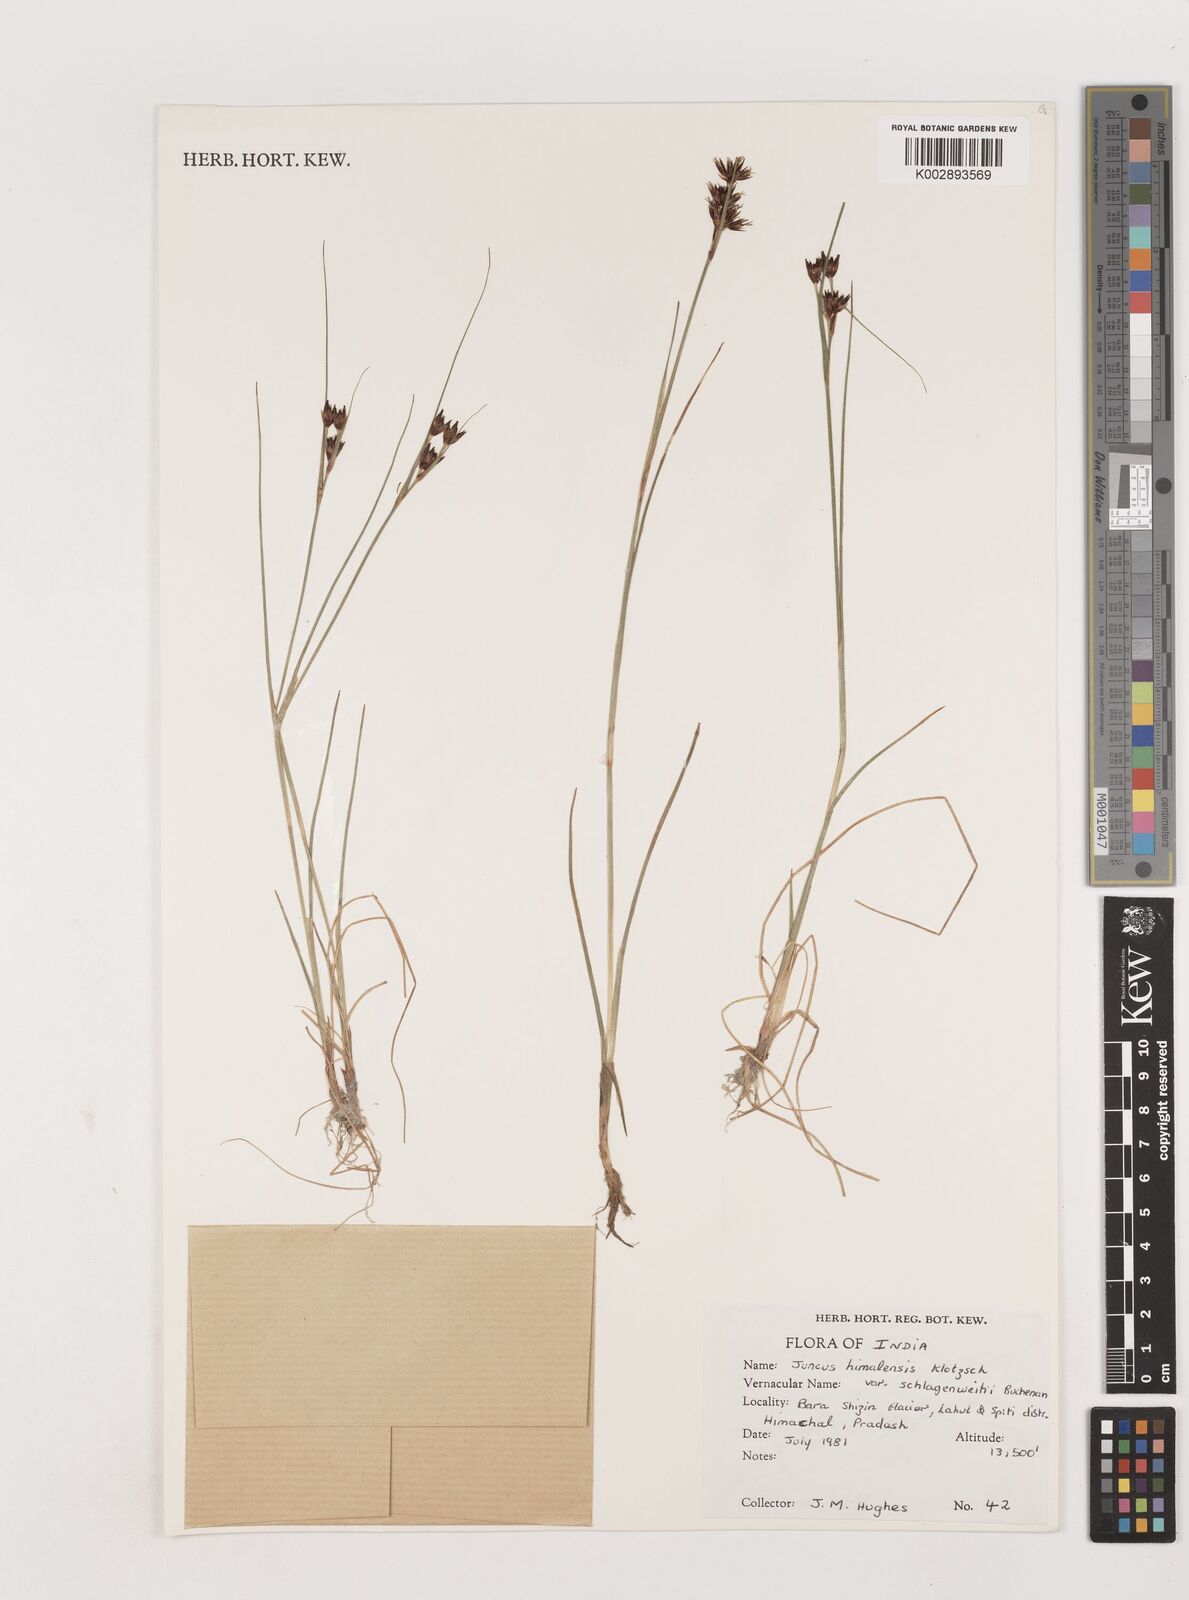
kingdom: Plantae
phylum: Tracheophyta
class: Liliopsida
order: Poales
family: Juncaceae
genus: Juncus
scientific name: Juncus himalensis
